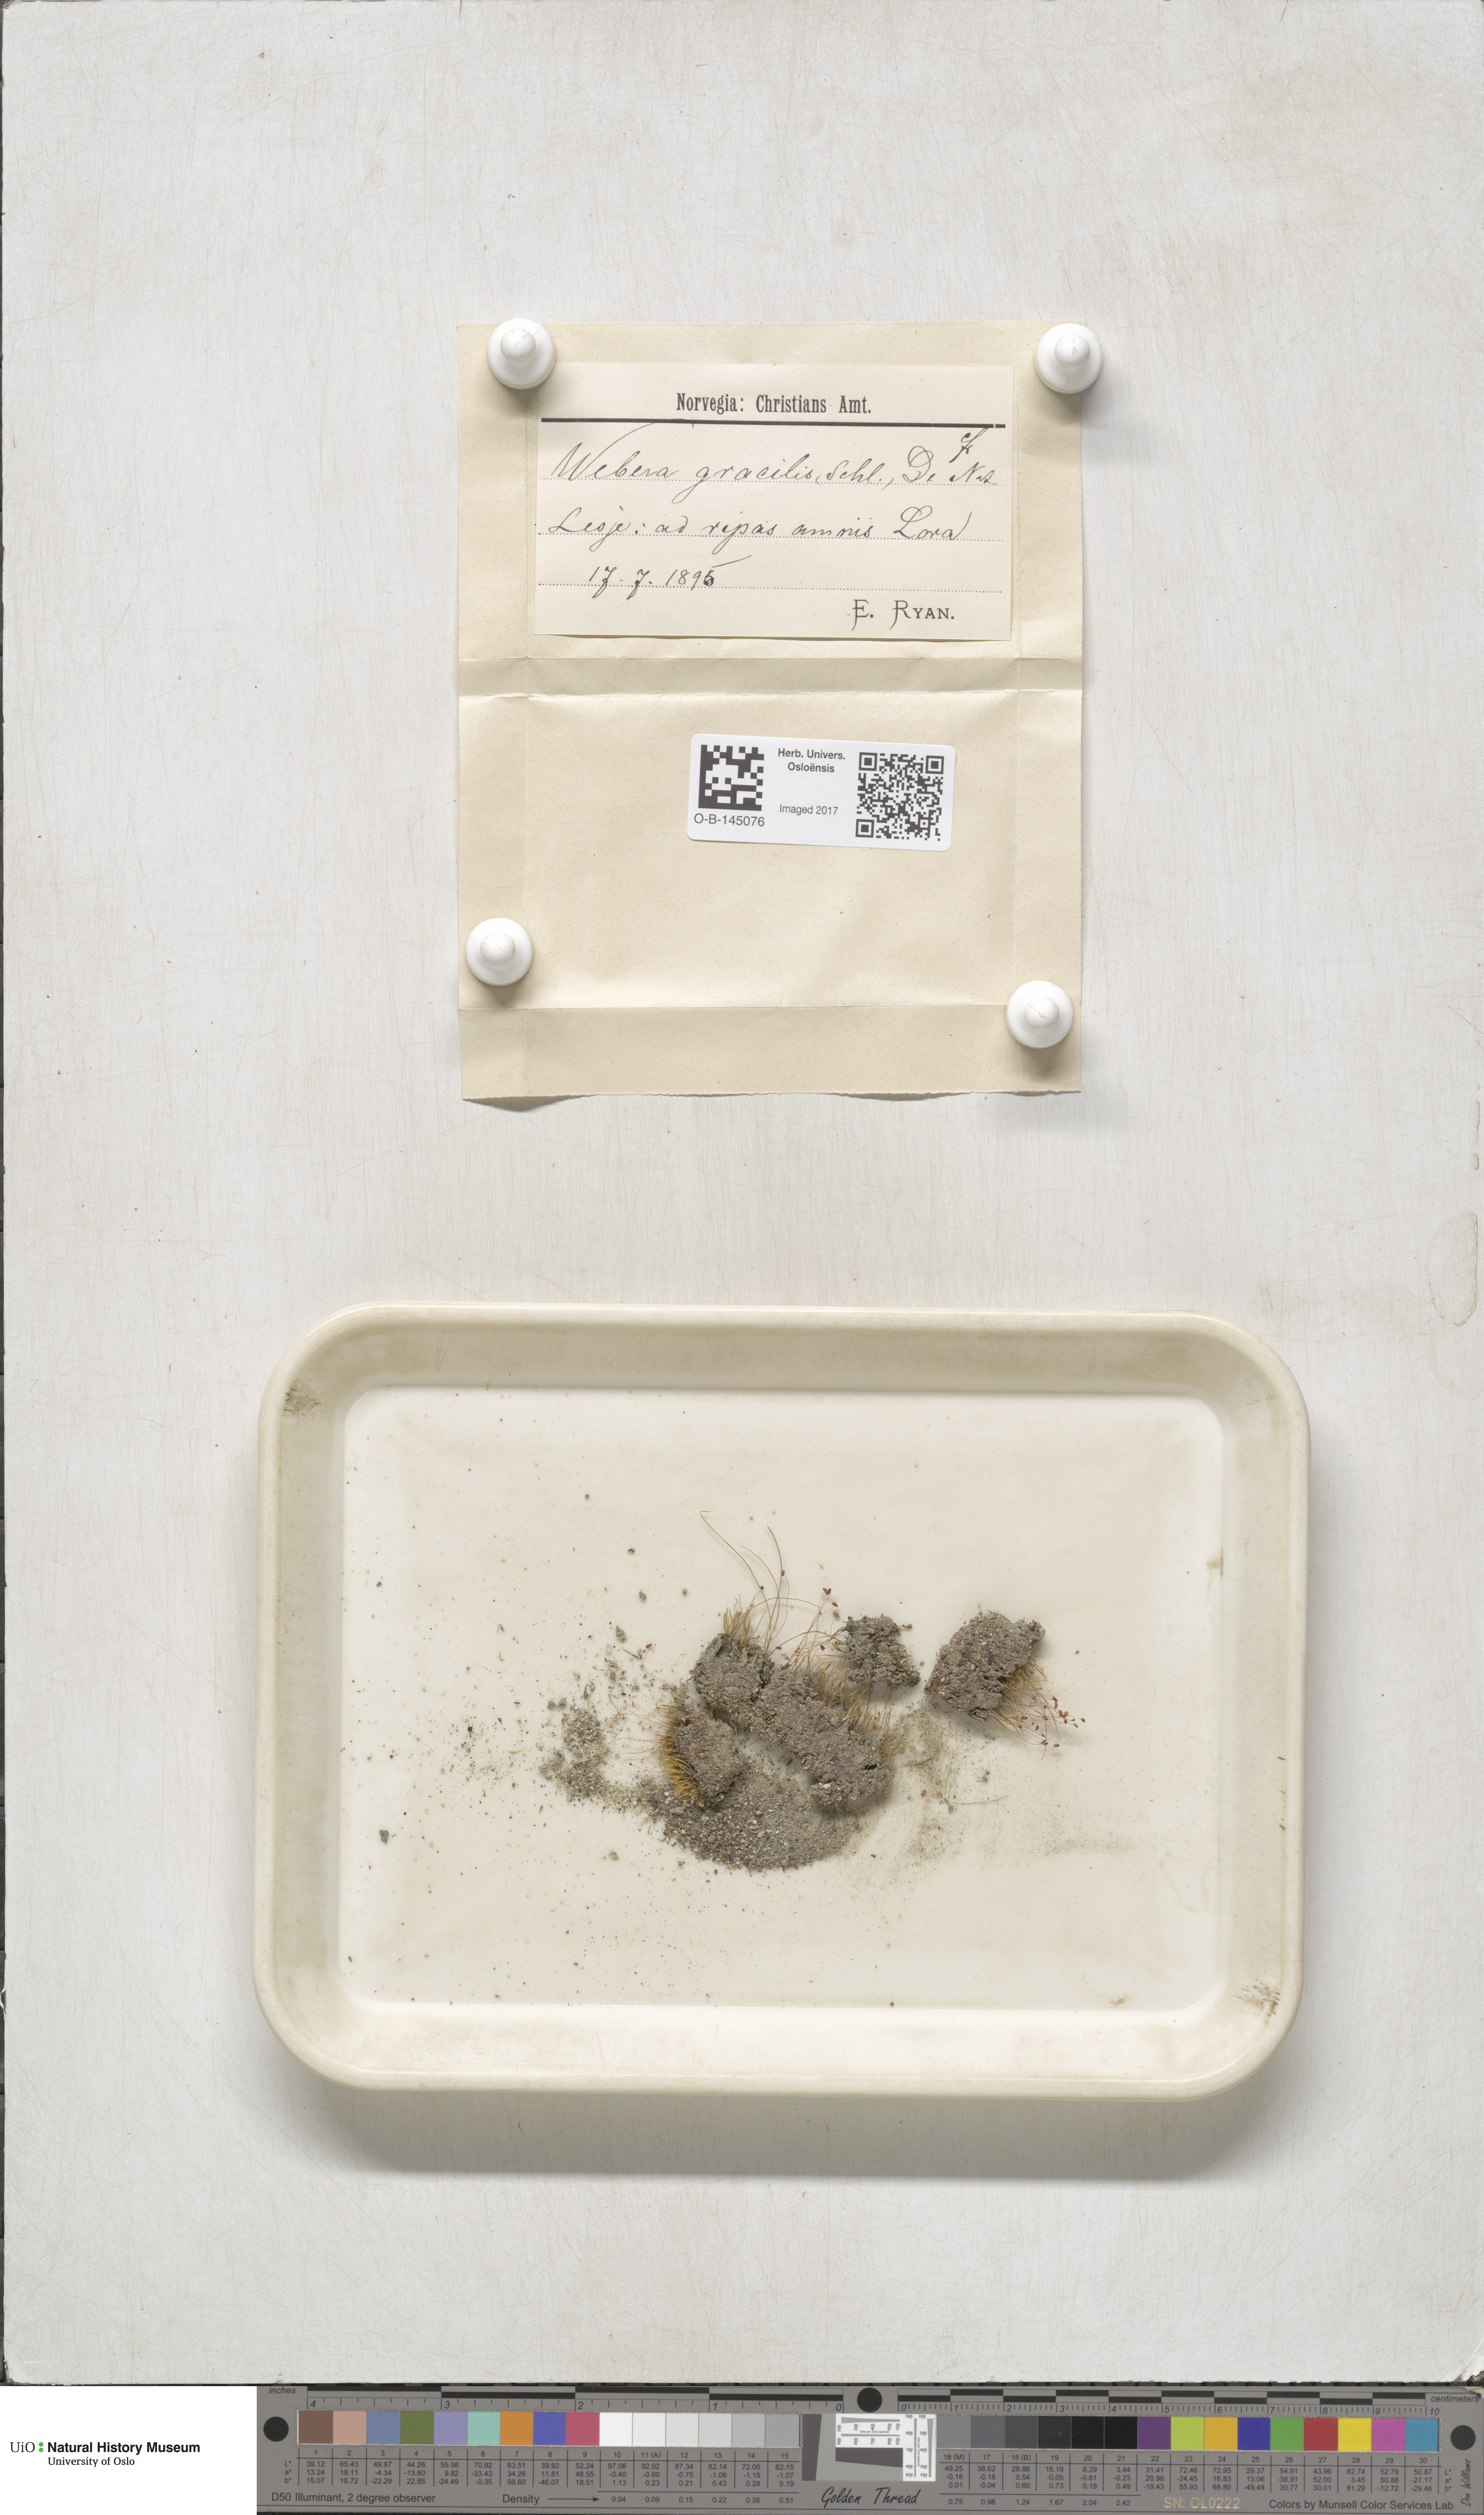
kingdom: Plantae
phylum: Bryophyta
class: Bryopsida
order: Bryales
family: Mniaceae
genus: Pohlia
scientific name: Pohlia filum
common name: Slender nodding moss
